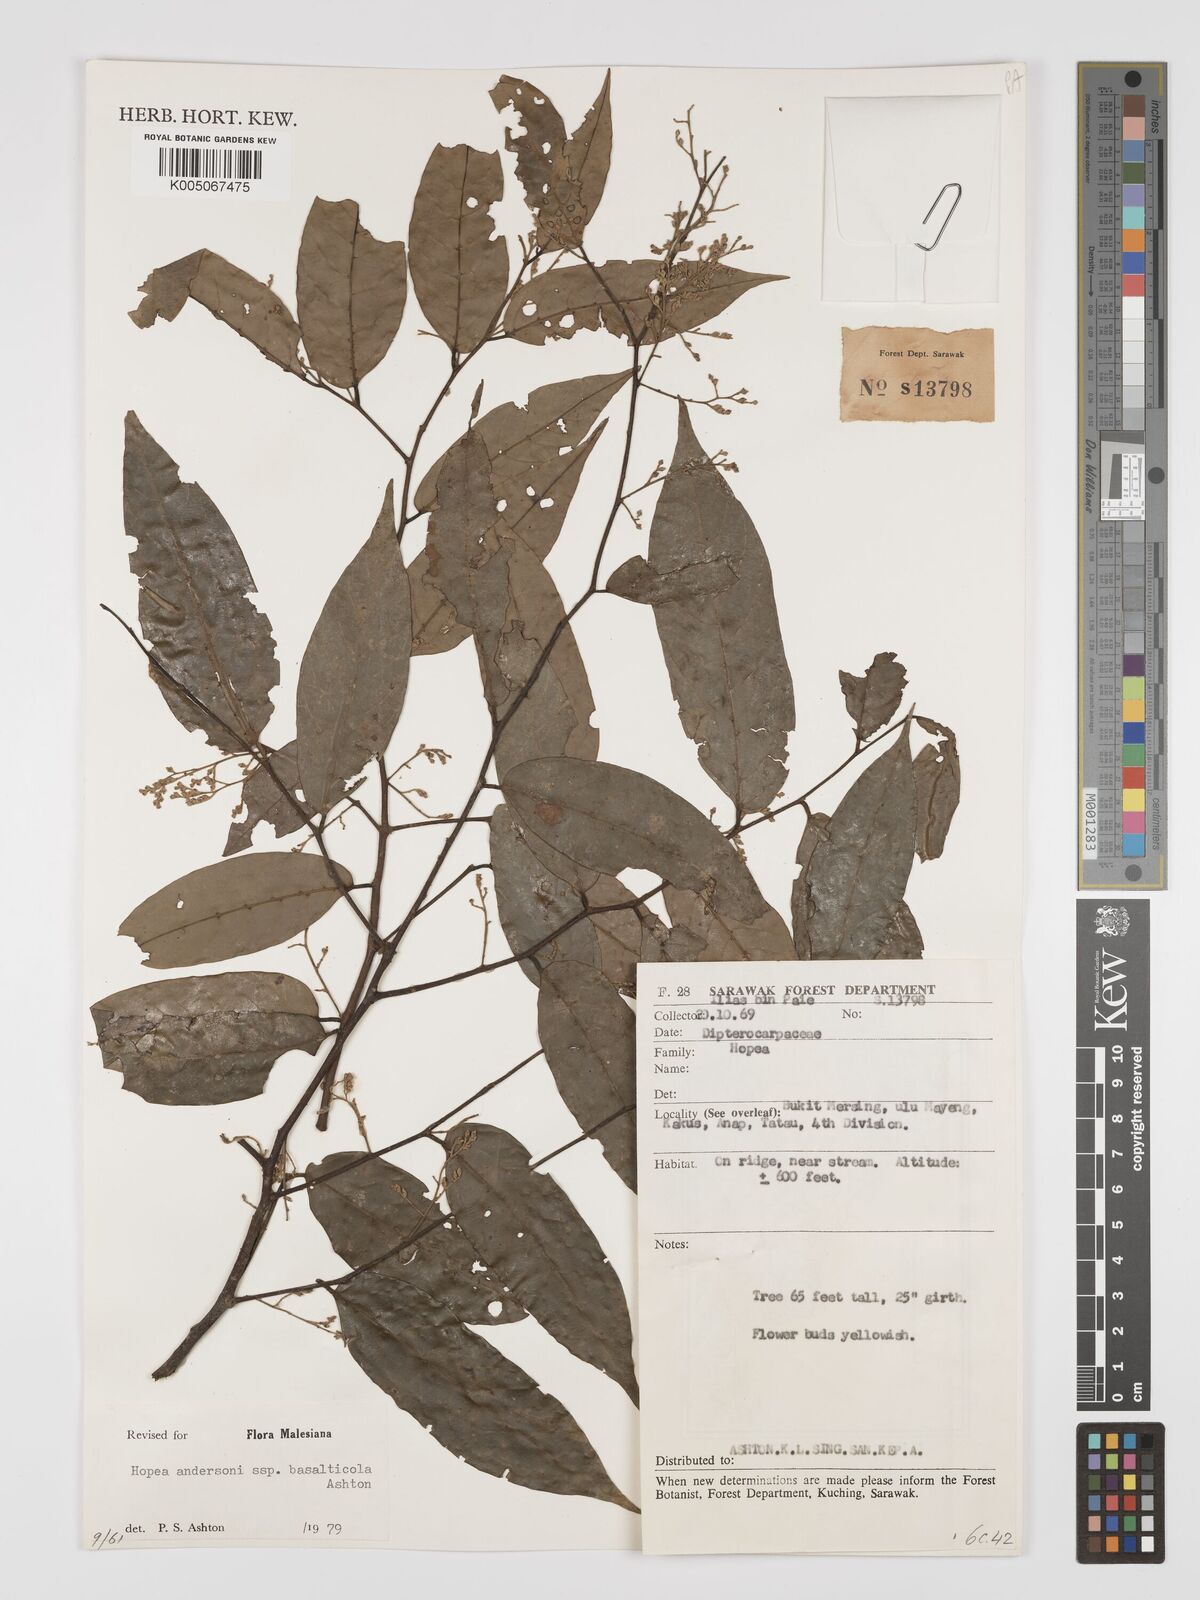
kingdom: Plantae
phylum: Tracheophyta
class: Magnoliopsida
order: Malvales
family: Dipterocarpaceae
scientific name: Dipterocarpaceae
